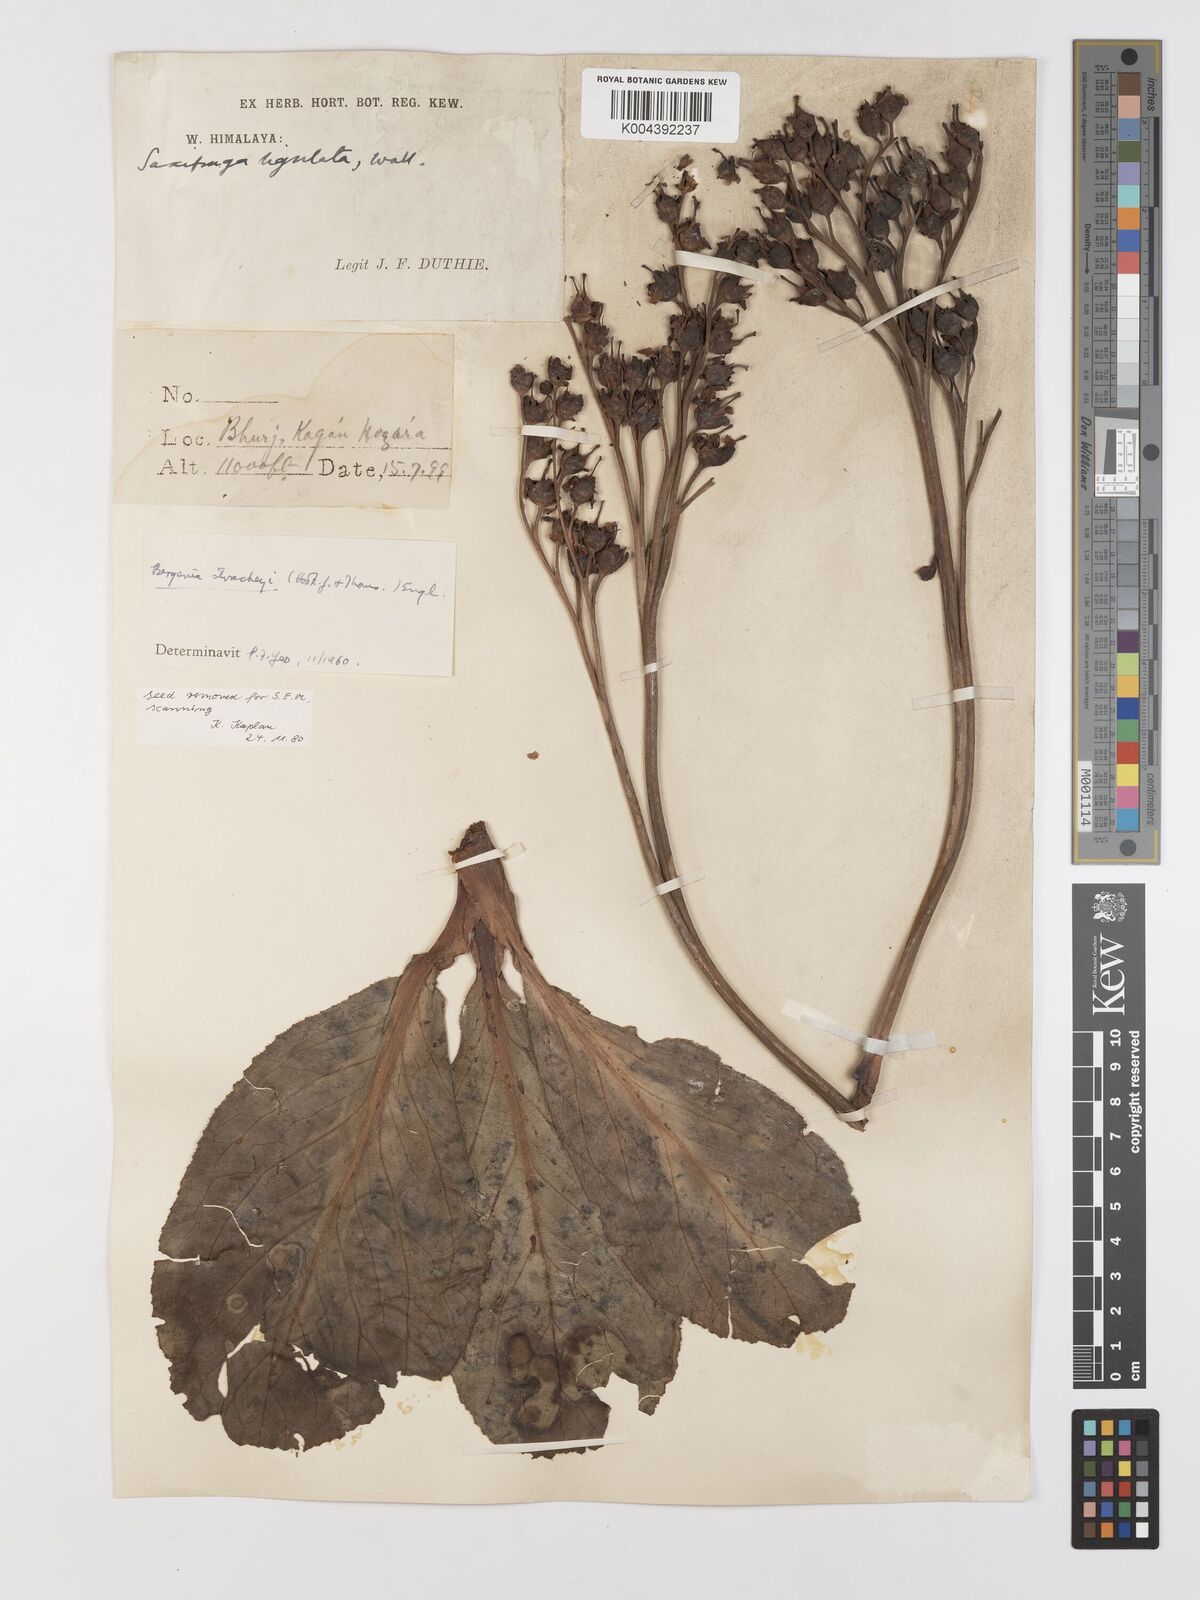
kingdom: Plantae
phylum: Tracheophyta
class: Magnoliopsida
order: Saxifragales
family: Saxifragaceae
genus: Bergenia
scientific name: Bergenia stracheyi
